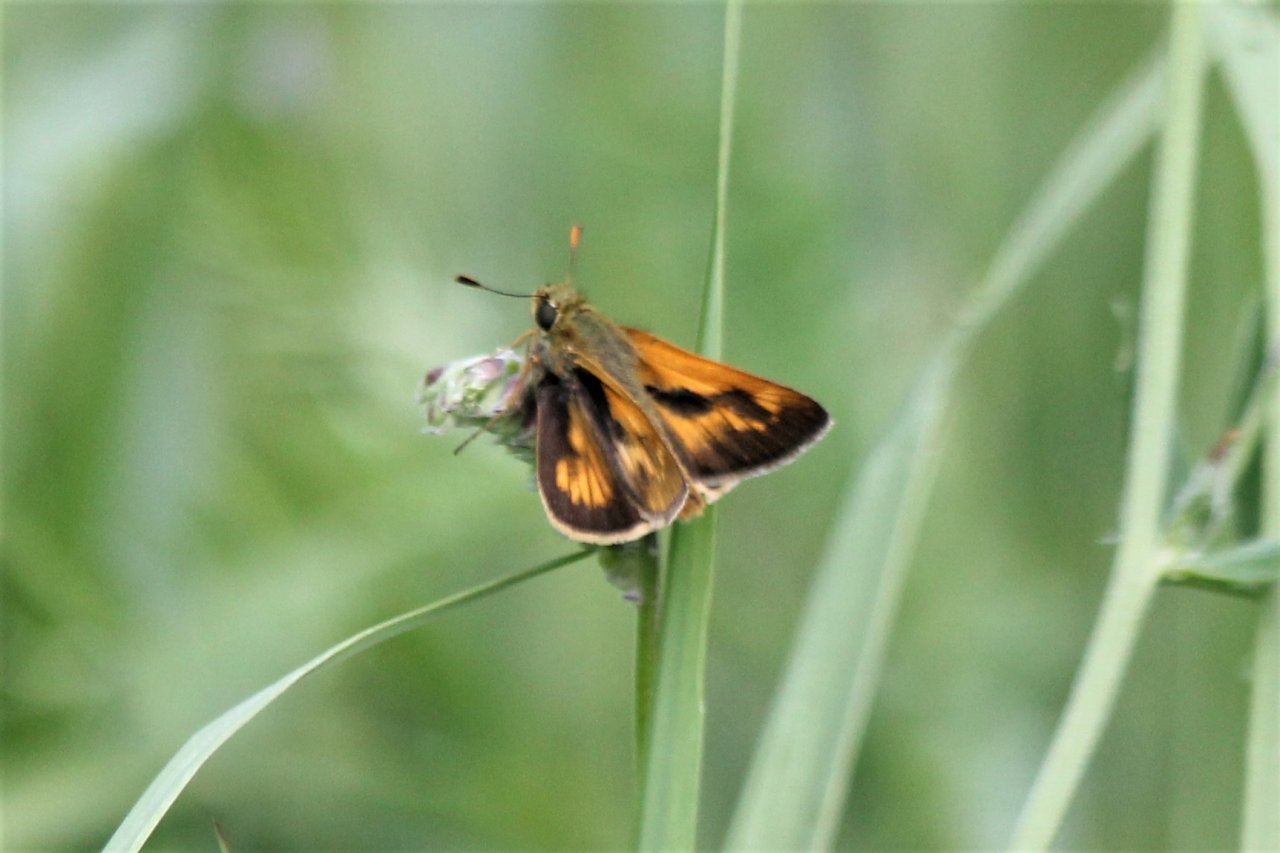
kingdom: Animalia
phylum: Arthropoda
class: Insecta
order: Lepidoptera
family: Hesperiidae
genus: Polites
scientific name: Polites
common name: Long Dash Skipper
